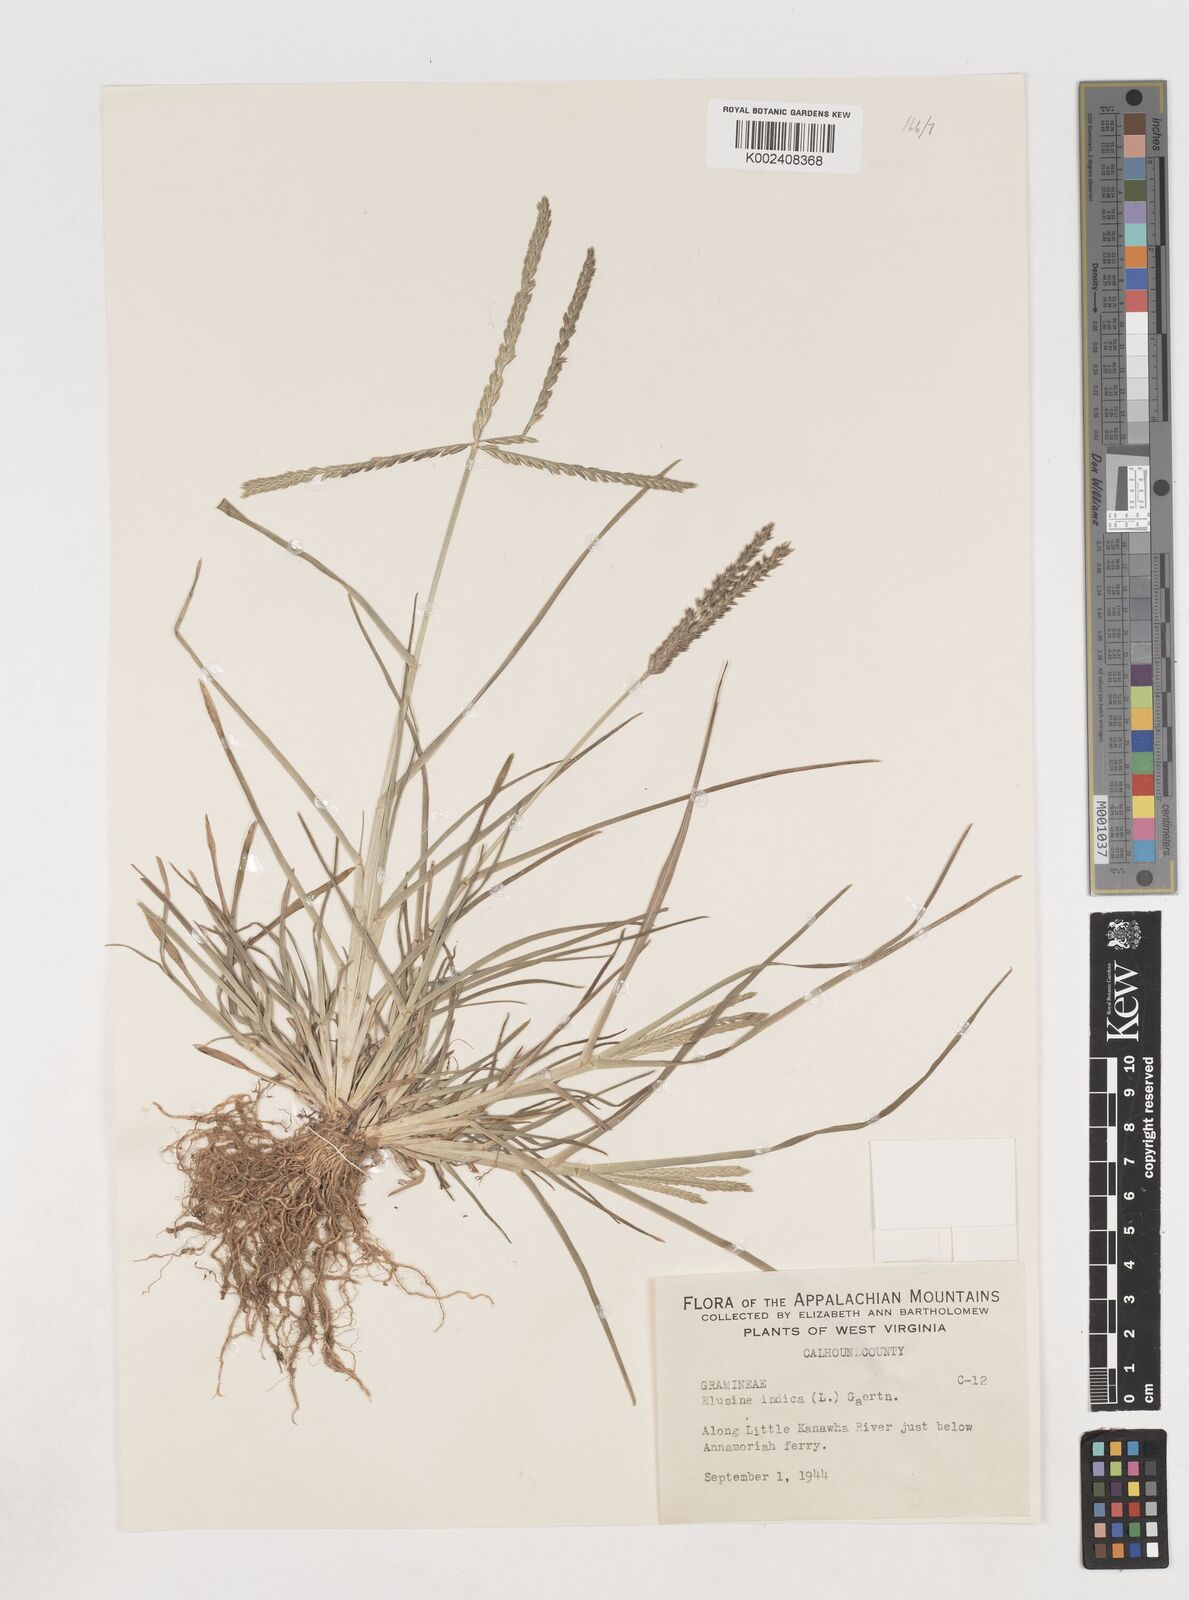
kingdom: Plantae
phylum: Tracheophyta
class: Liliopsida
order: Poales
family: Poaceae
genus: Eleusine
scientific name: Eleusine indica
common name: Yard-grass
